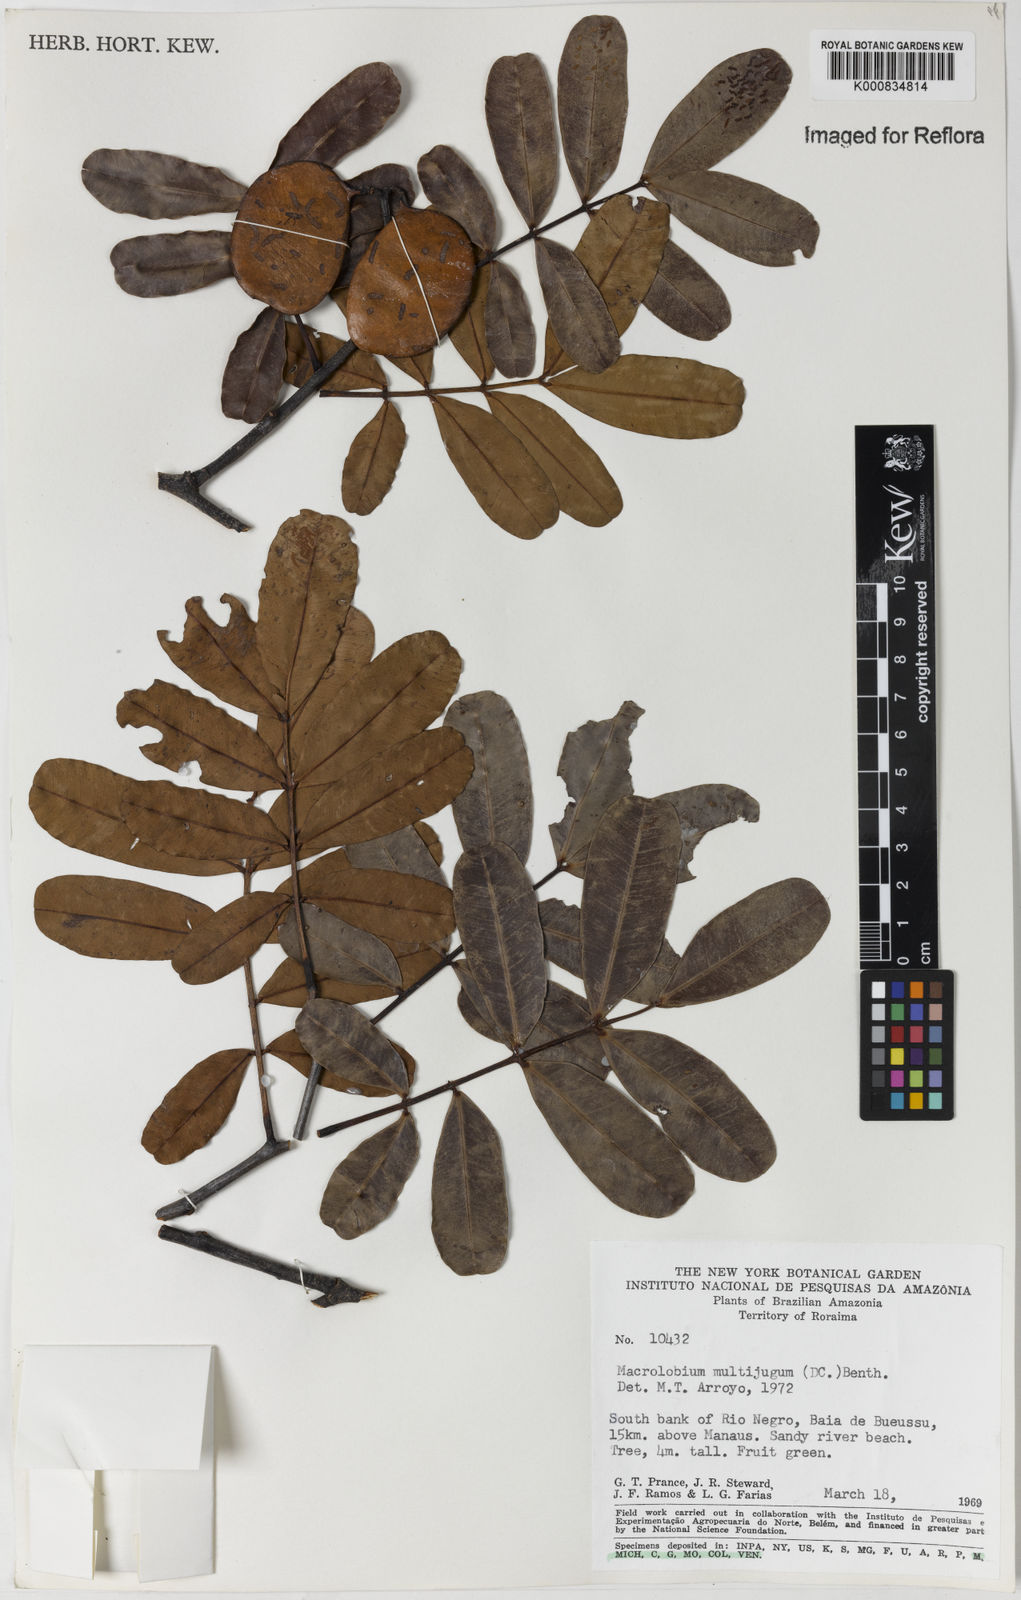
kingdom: Plantae
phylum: Tracheophyta
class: Magnoliopsida
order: Fabales
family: Fabaceae
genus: Macrolobium
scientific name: Macrolobium multijugum
